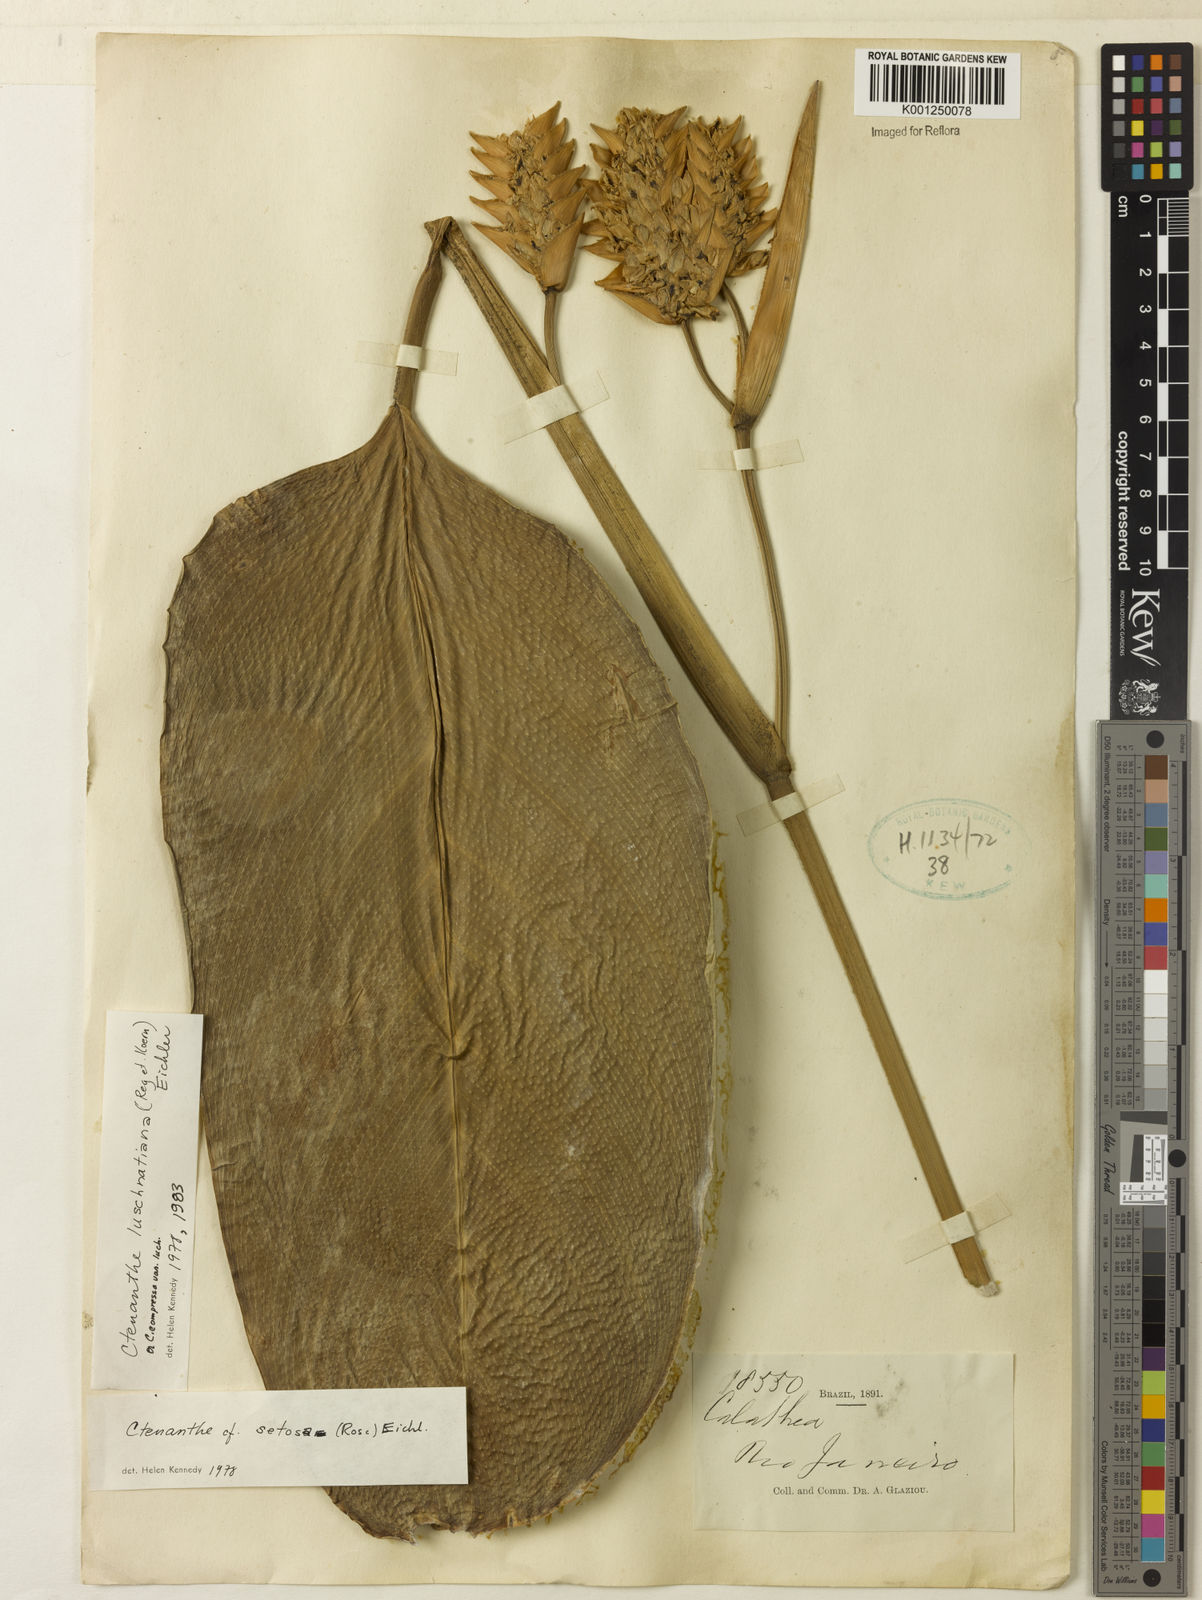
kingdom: Plantae
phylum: Tracheophyta
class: Liliopsida
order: Zingiberales
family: Marantaceae
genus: Ctenanthe
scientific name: Ctenanthe compressa
